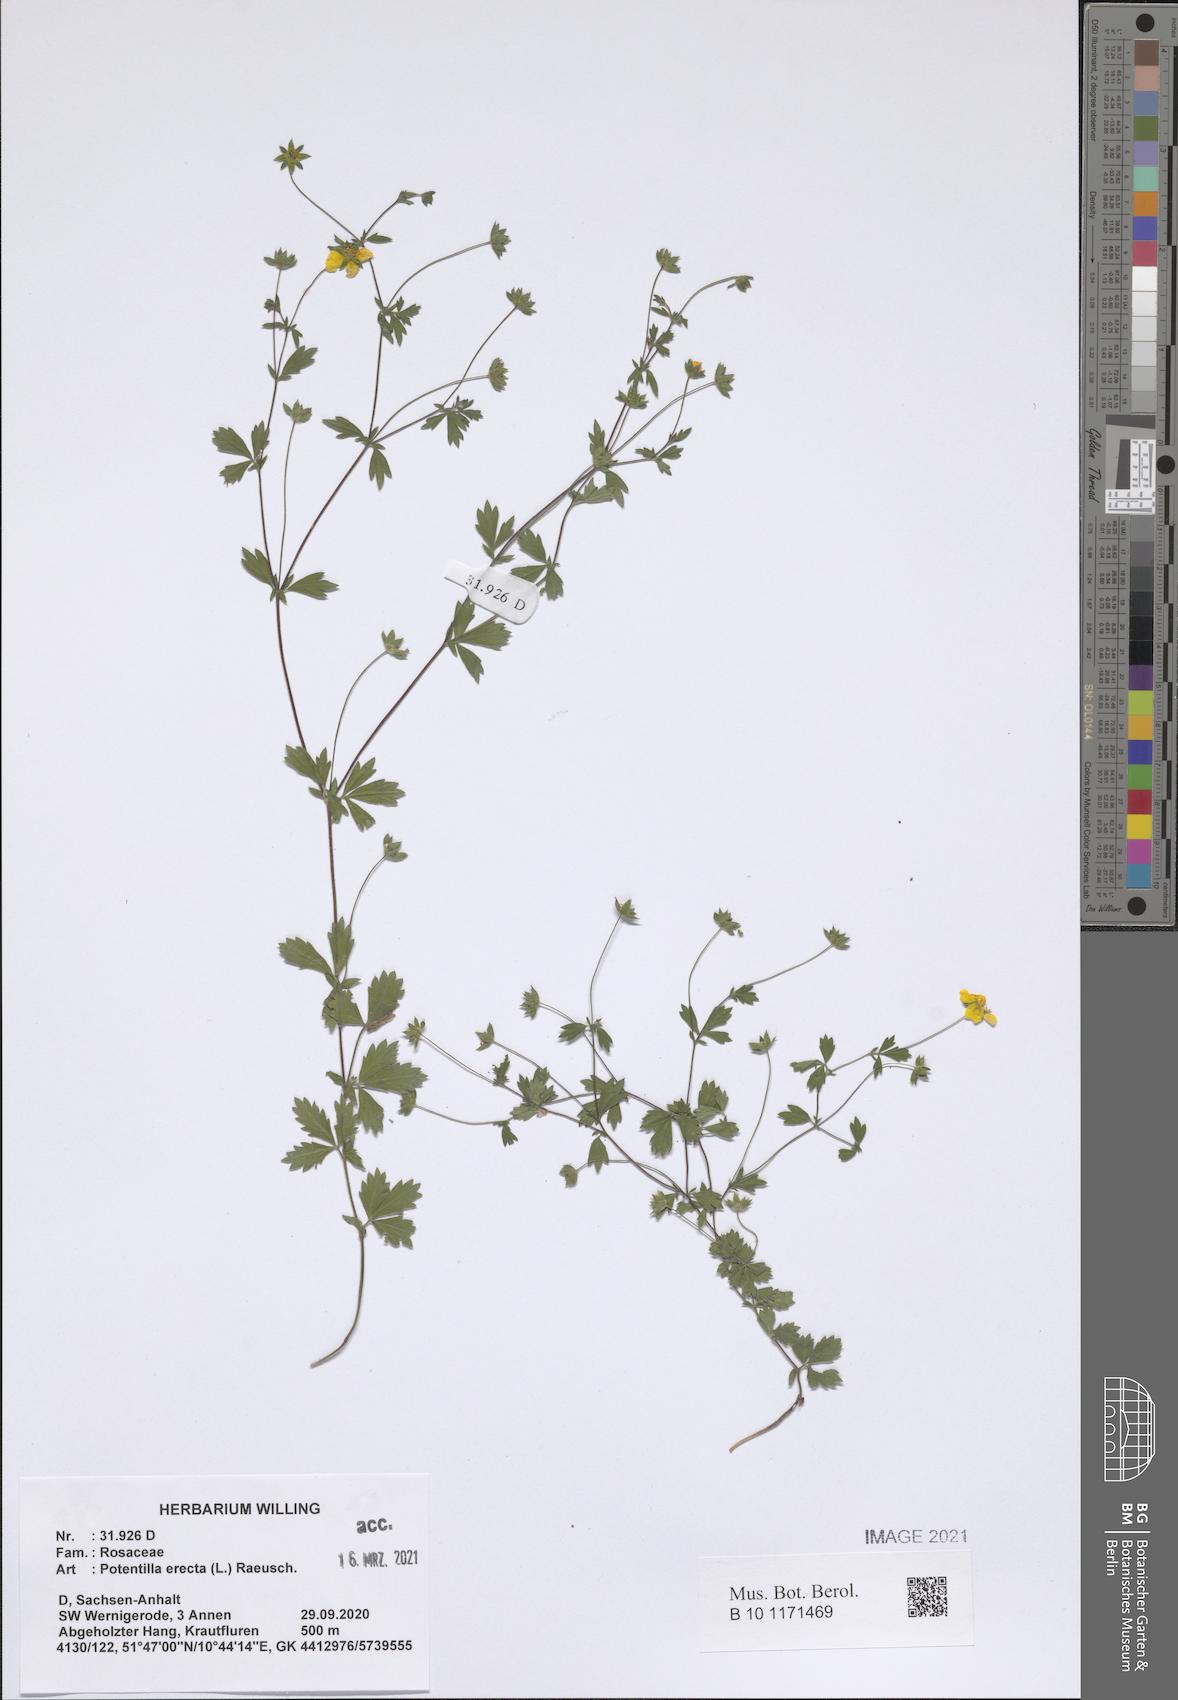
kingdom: Plantae
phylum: Tracheophyta
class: Magnoliopsida
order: Rosales
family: Rosaceae
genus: Potentilla
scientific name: Potentilla erecta
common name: Tormentil
